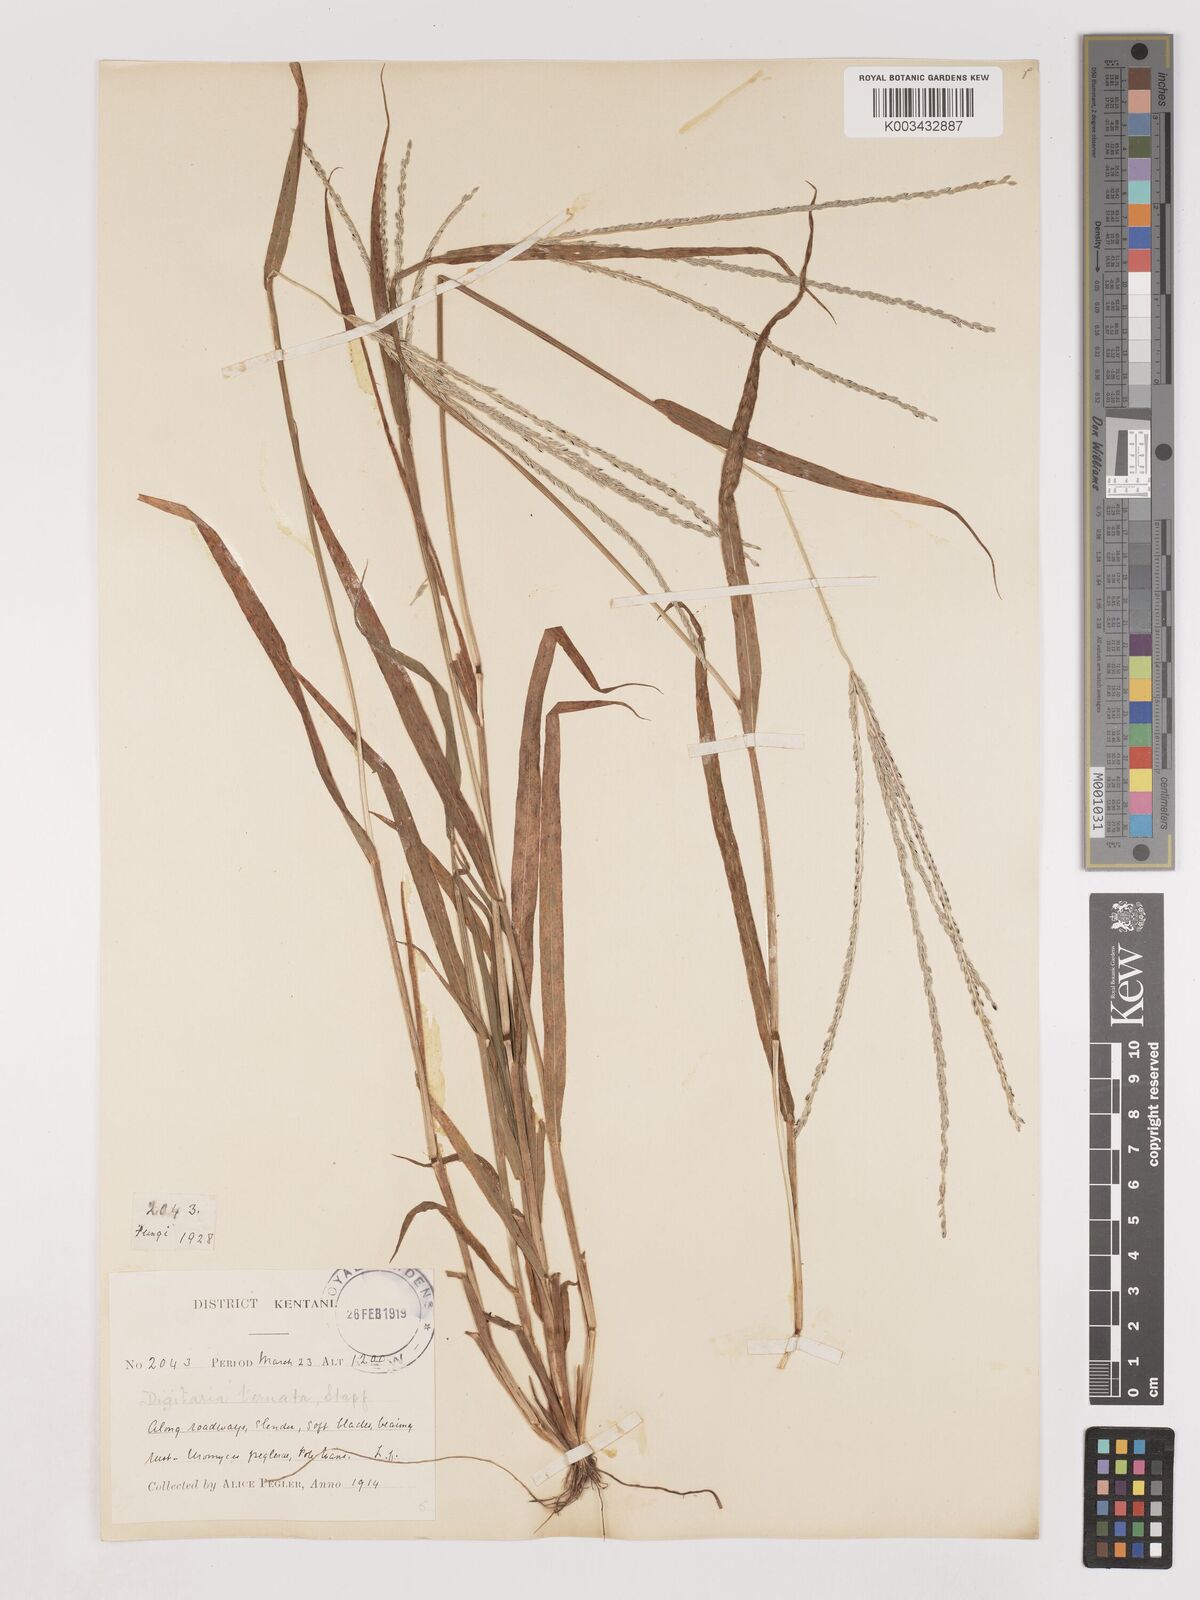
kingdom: Plantae
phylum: Tracheophyta
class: Liliopsida
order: Poales
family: Poaceae
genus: Digitaria
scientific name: Digitaria ternata
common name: Blackseed crabgrass
